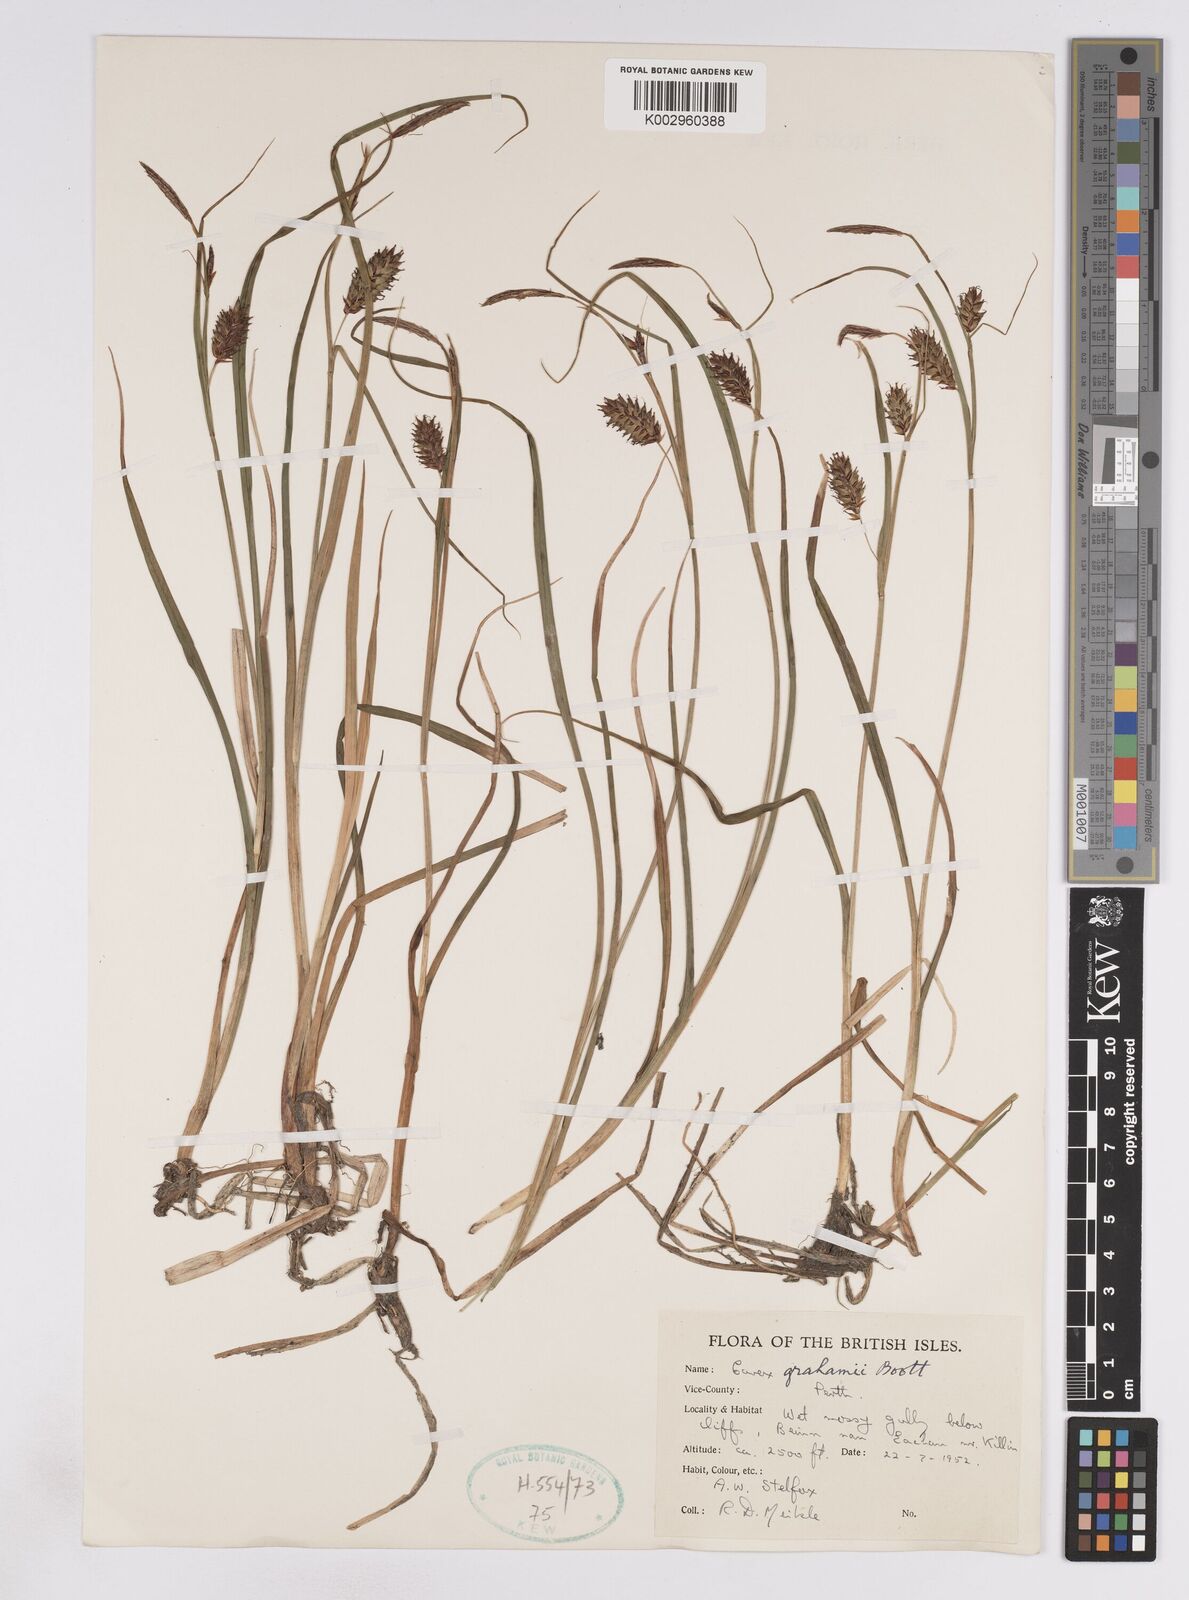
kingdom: Plantae
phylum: Tracheophyta
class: Liliopsida
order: Poales
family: Cyperaceae
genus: Carex
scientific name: Carex rostrata
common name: Bottle sedge
